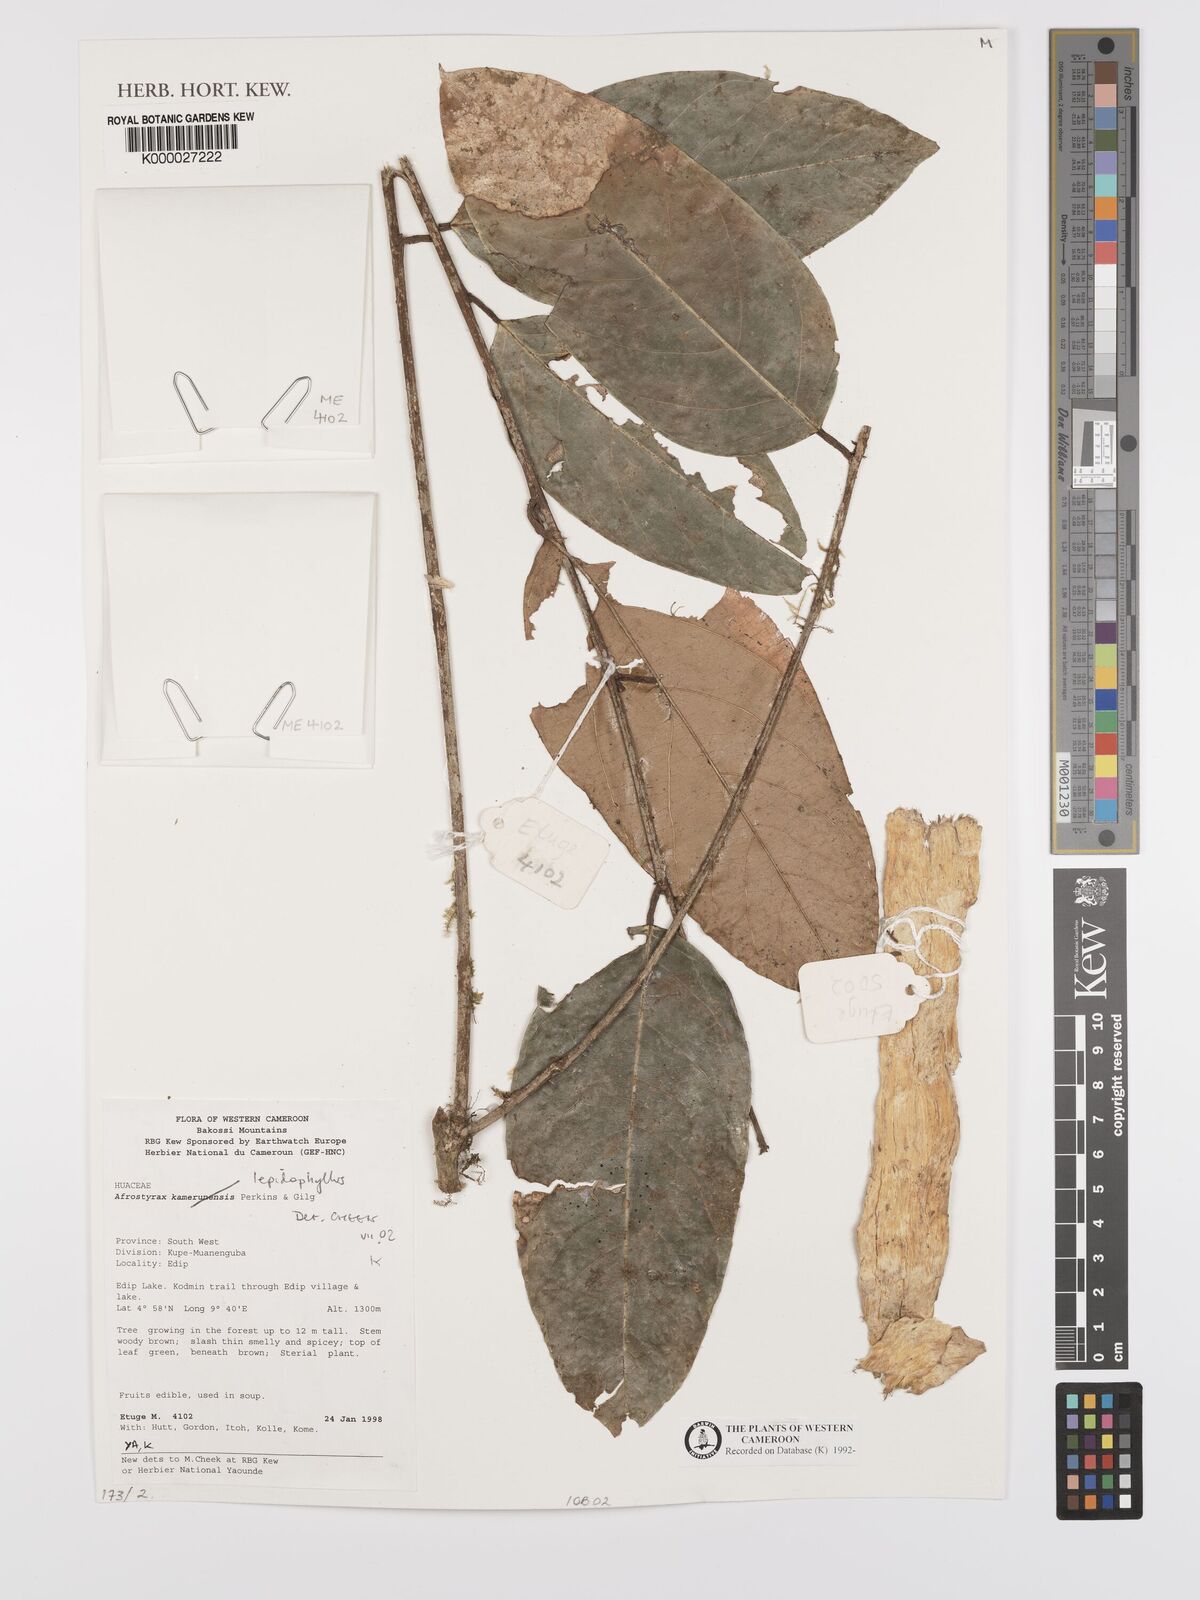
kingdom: Plantae
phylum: Tracheophyta
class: Magnoliopsida
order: Oxalidales
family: Huaceae
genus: Afrostyrax
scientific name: Afrostyrax lepidophyllus
